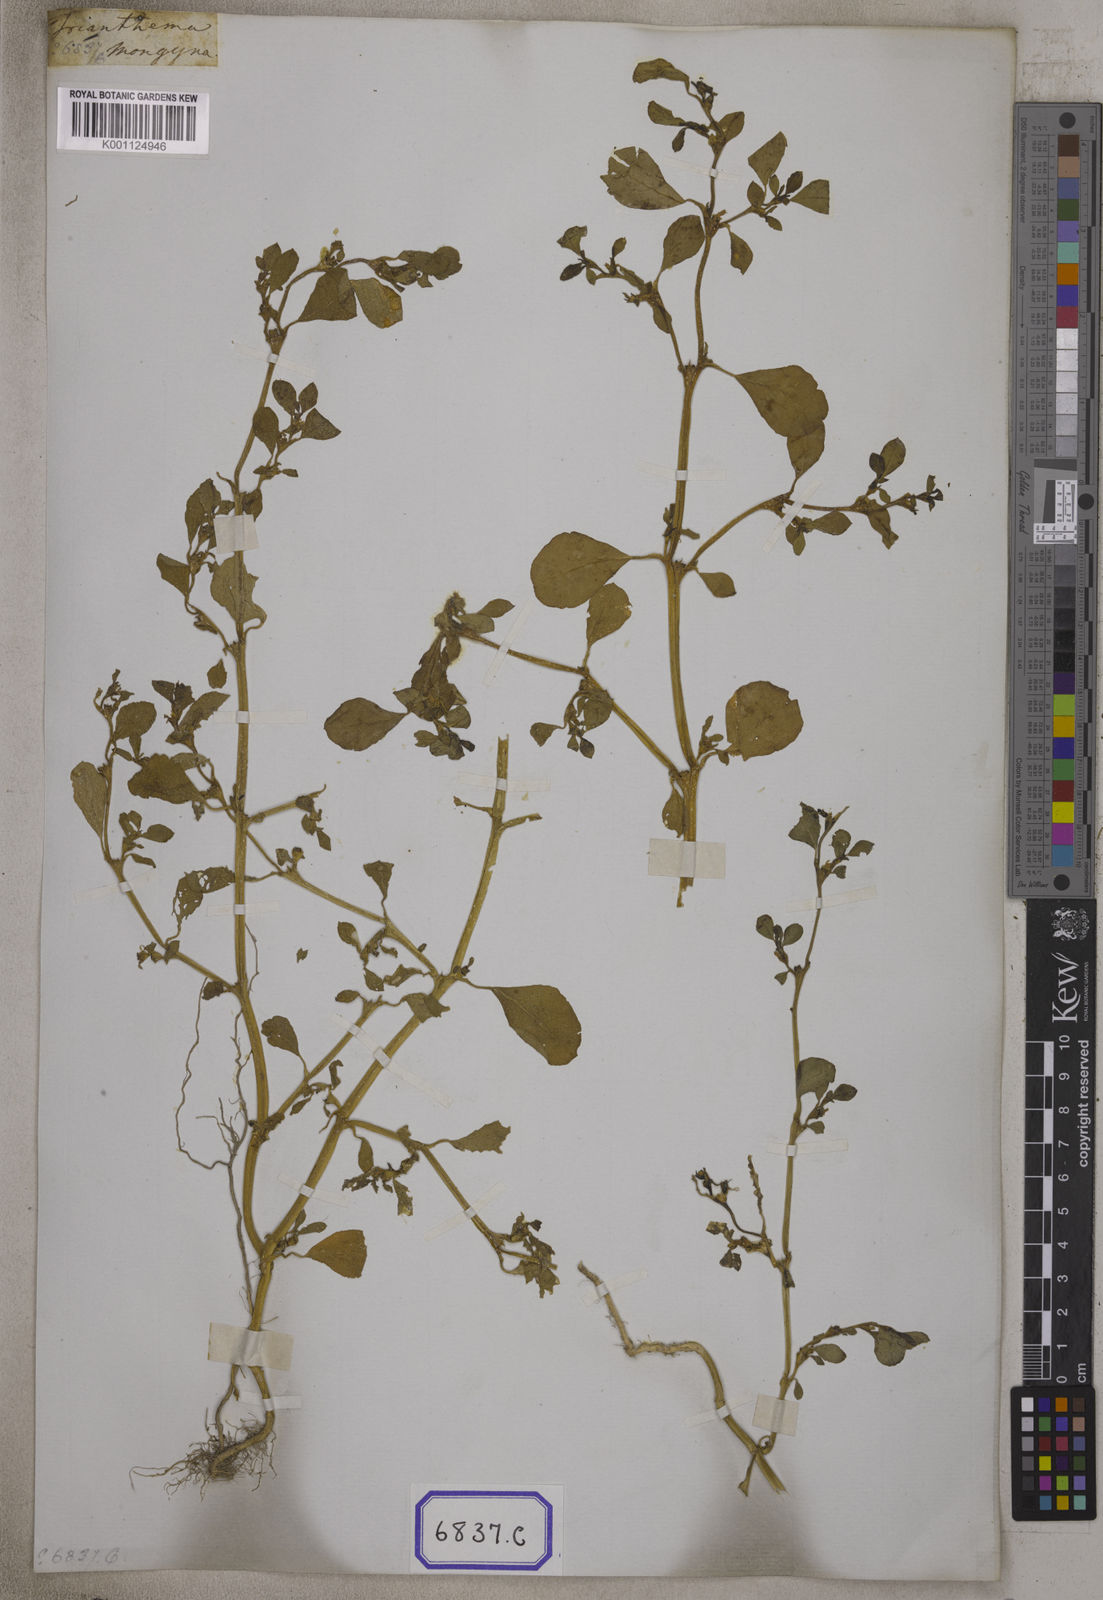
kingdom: Plantae
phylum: Tracheophyta
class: Magnoliopsida
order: Caryophyllales
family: Aizoaceae
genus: Trianthema
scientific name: Trianthema
